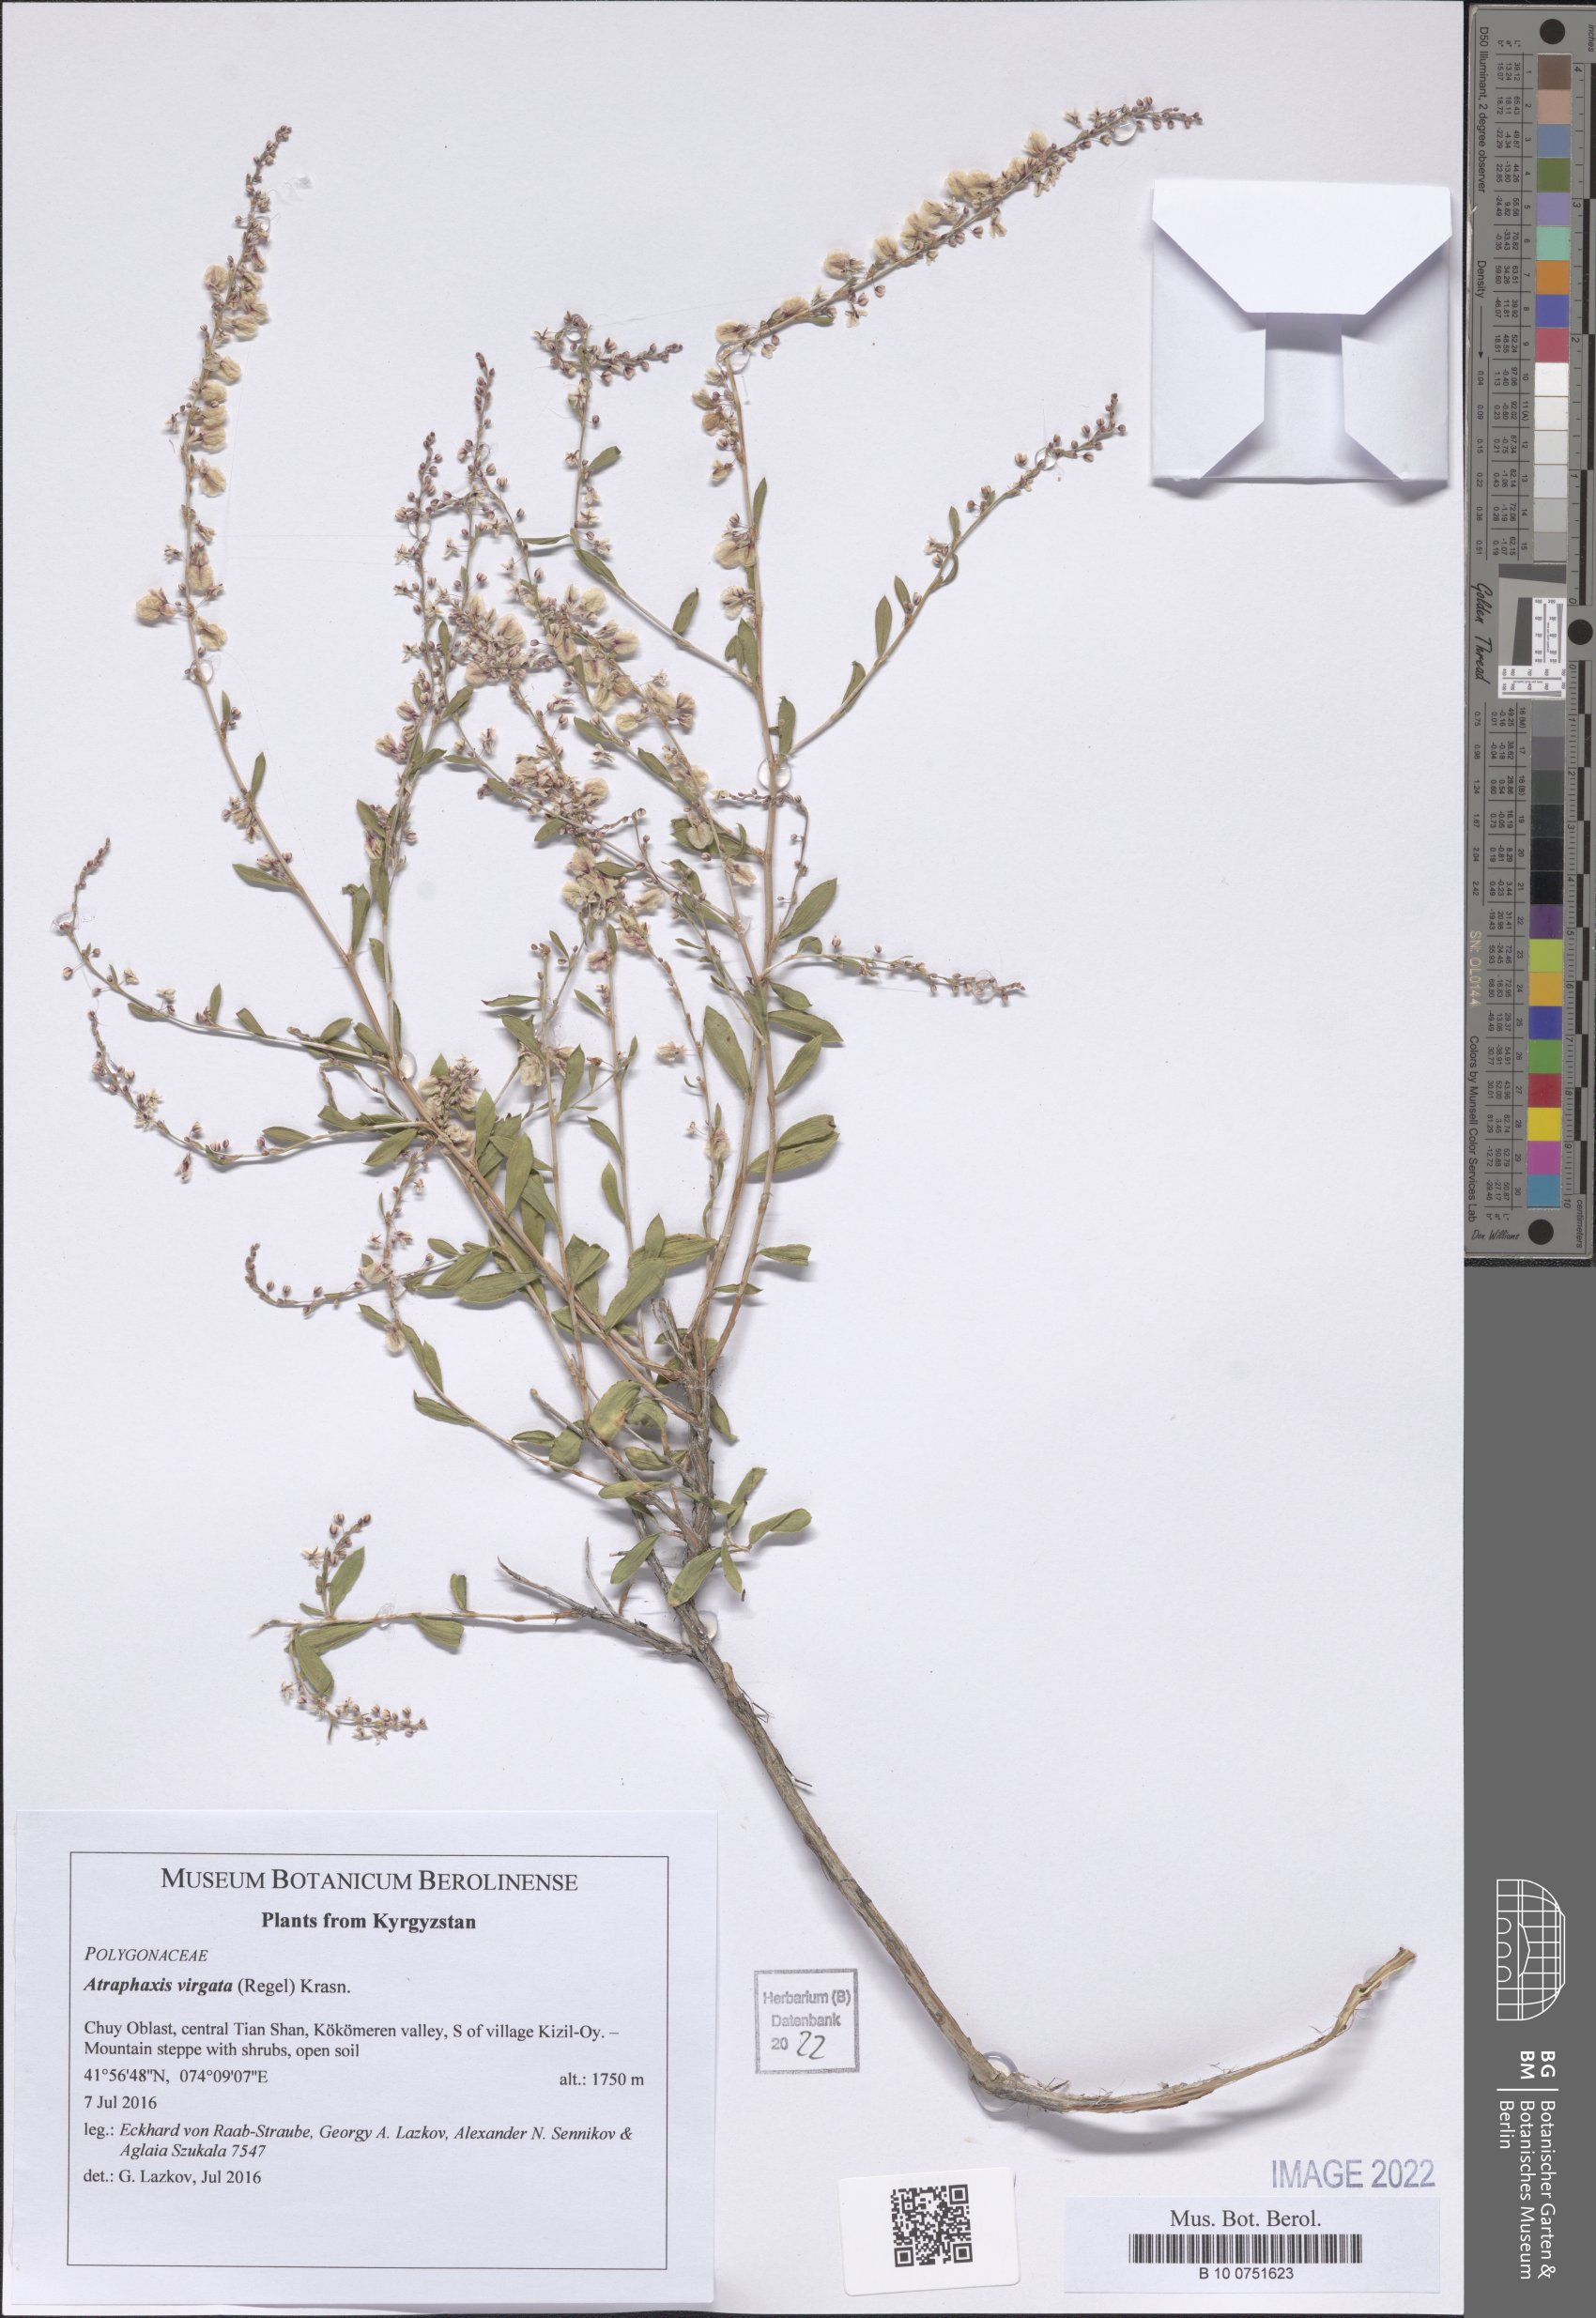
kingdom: Plantae
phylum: Tracheophyta
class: Magnoliopsida
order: Caryophyllales
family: Polygonaceae
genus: Atraphaxis
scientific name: Atraphaxis virgata
